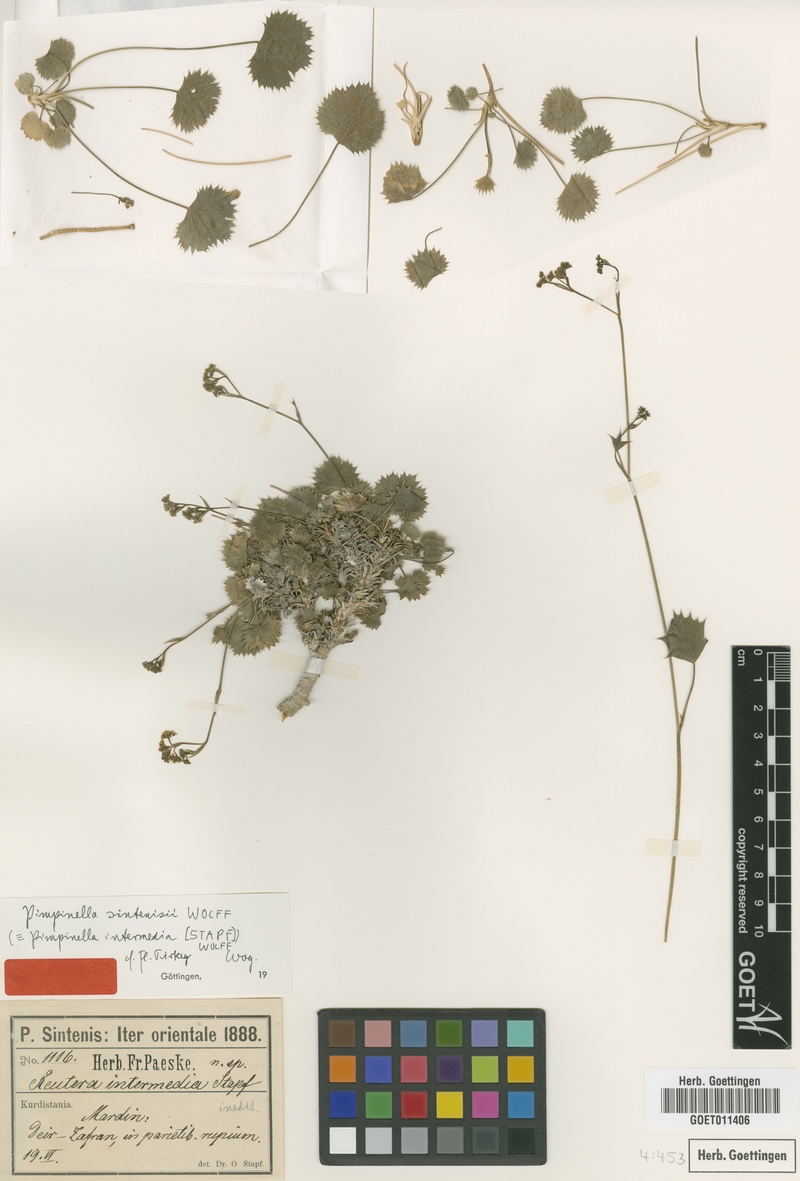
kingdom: Plantae
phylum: Tracheophyta
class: Magnoliopsida
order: Apiales
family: Apiaceae
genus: Pimpinella
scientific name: Pimpinella sintenisii
